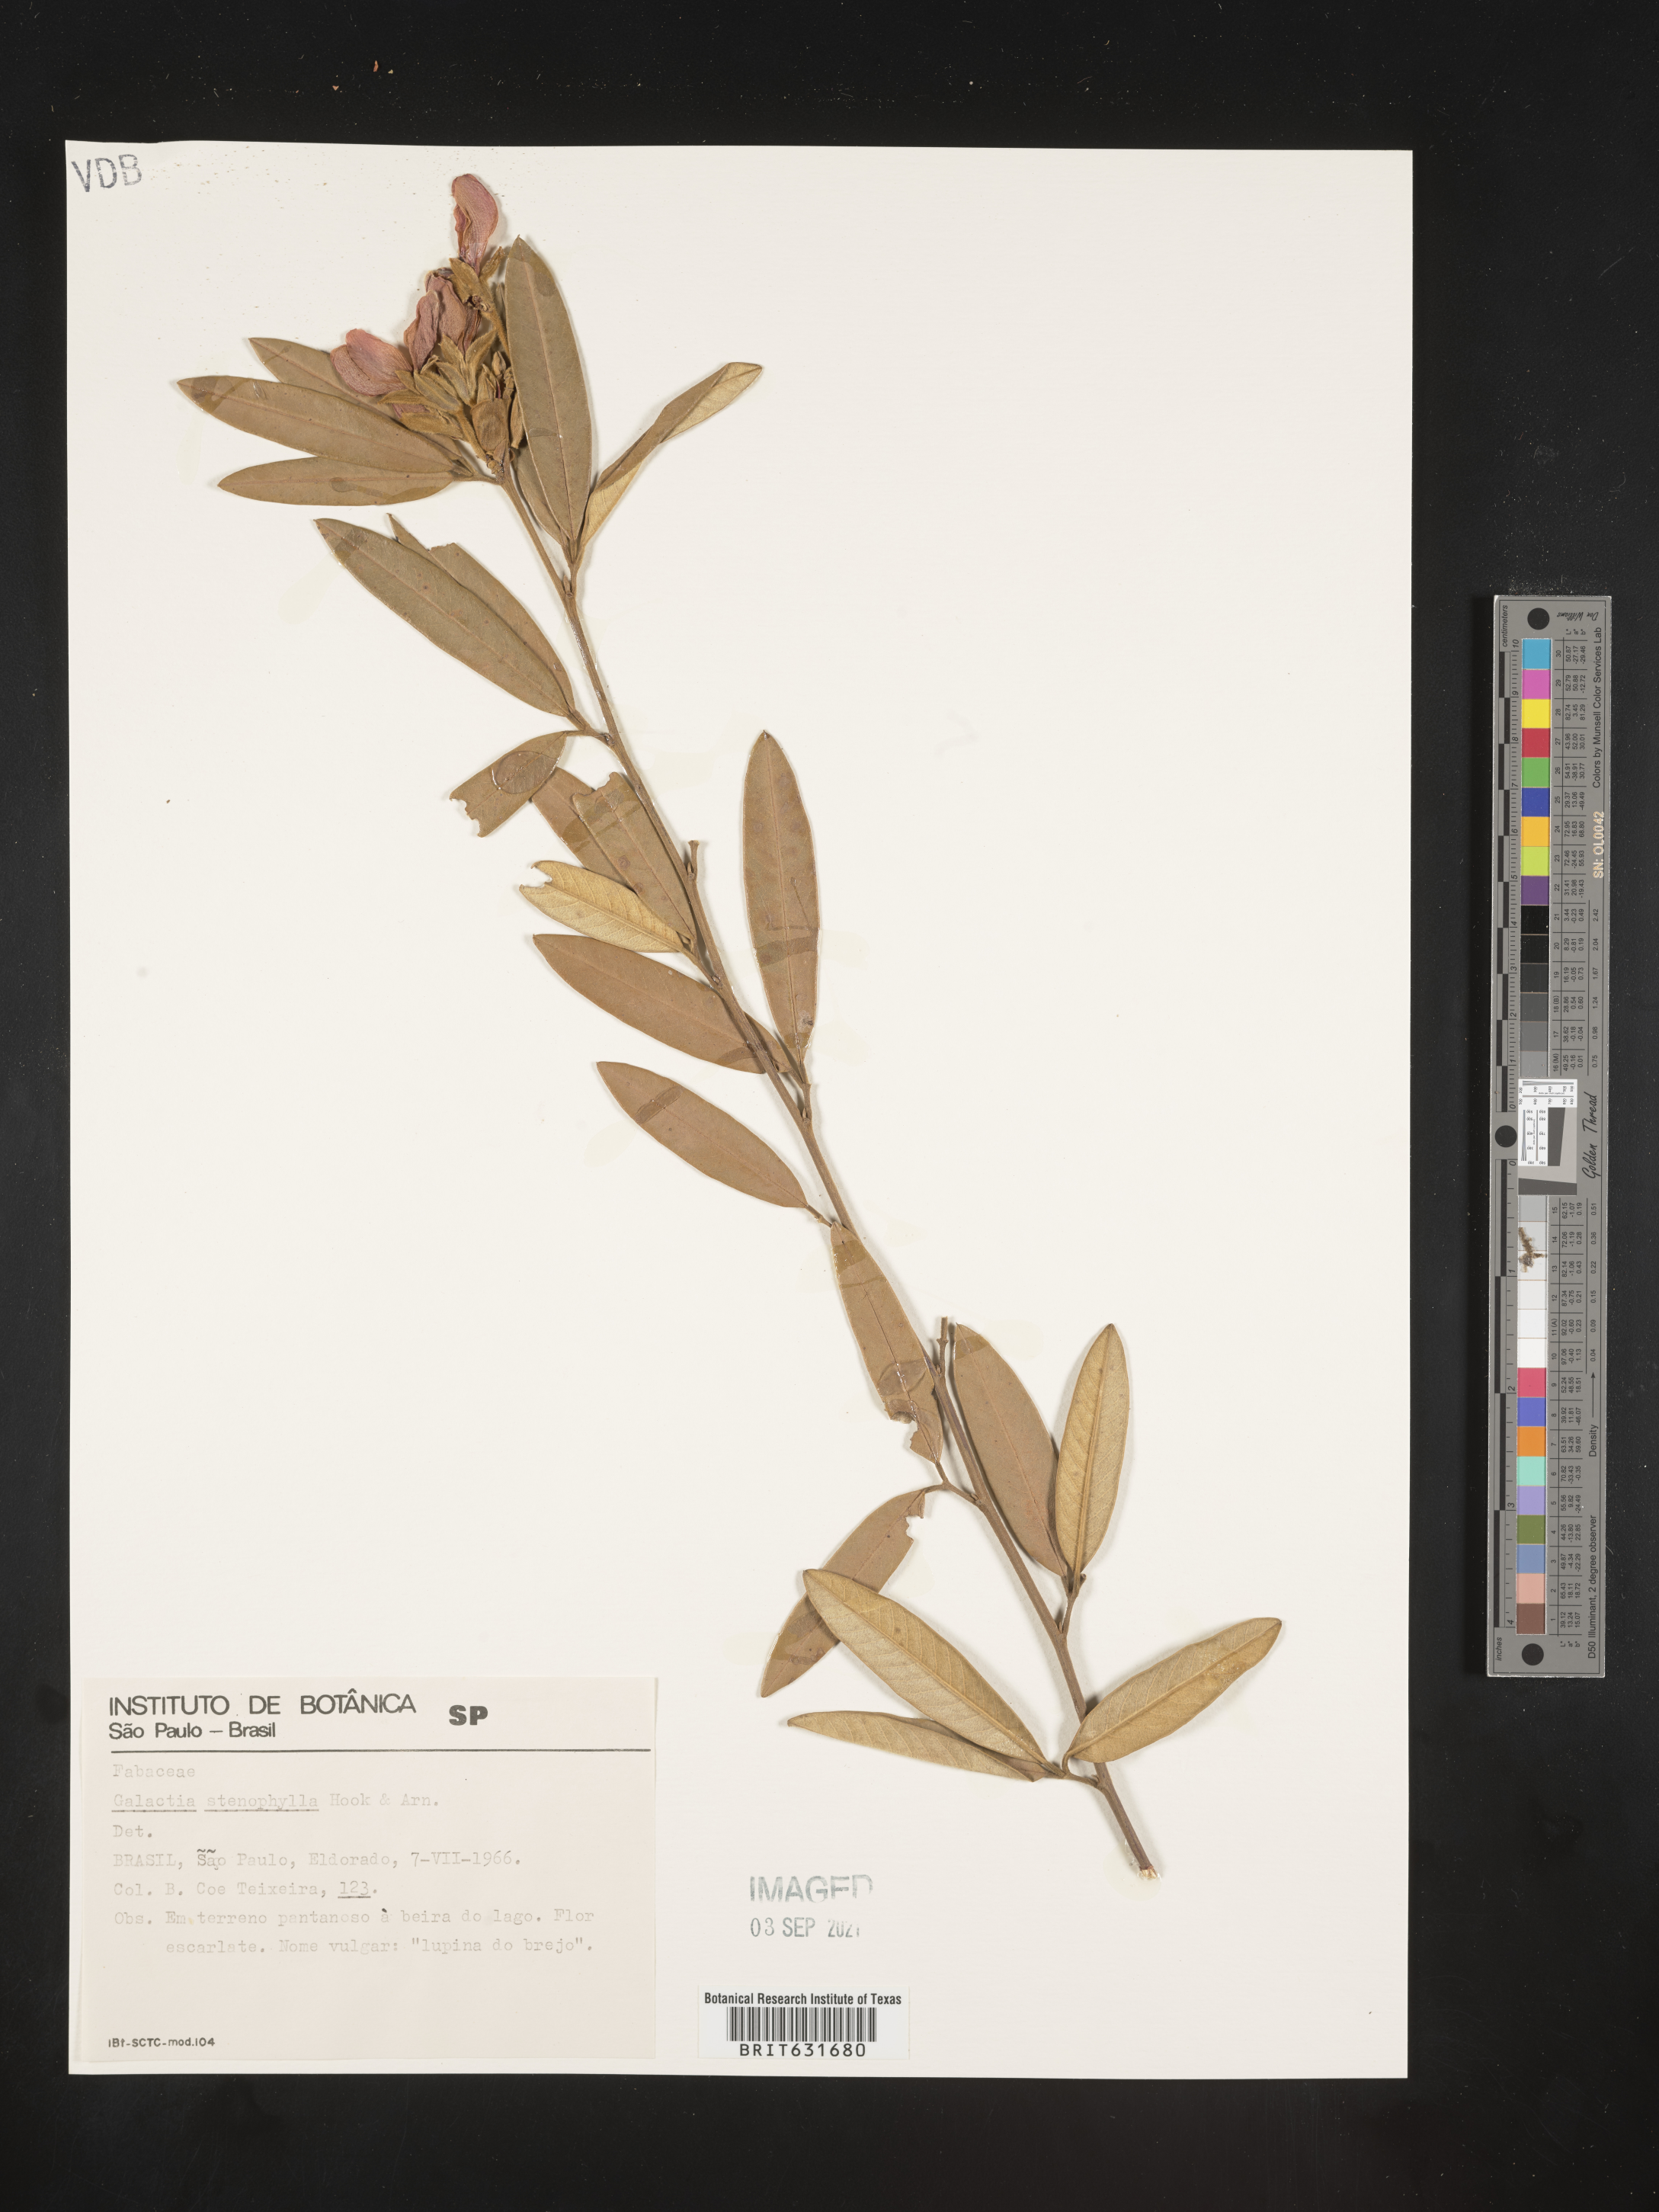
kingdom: Plantae
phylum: Tracheophyta
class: Magnoliopsida
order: Fabales
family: Fabaceae
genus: Galactia
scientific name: Galactia
